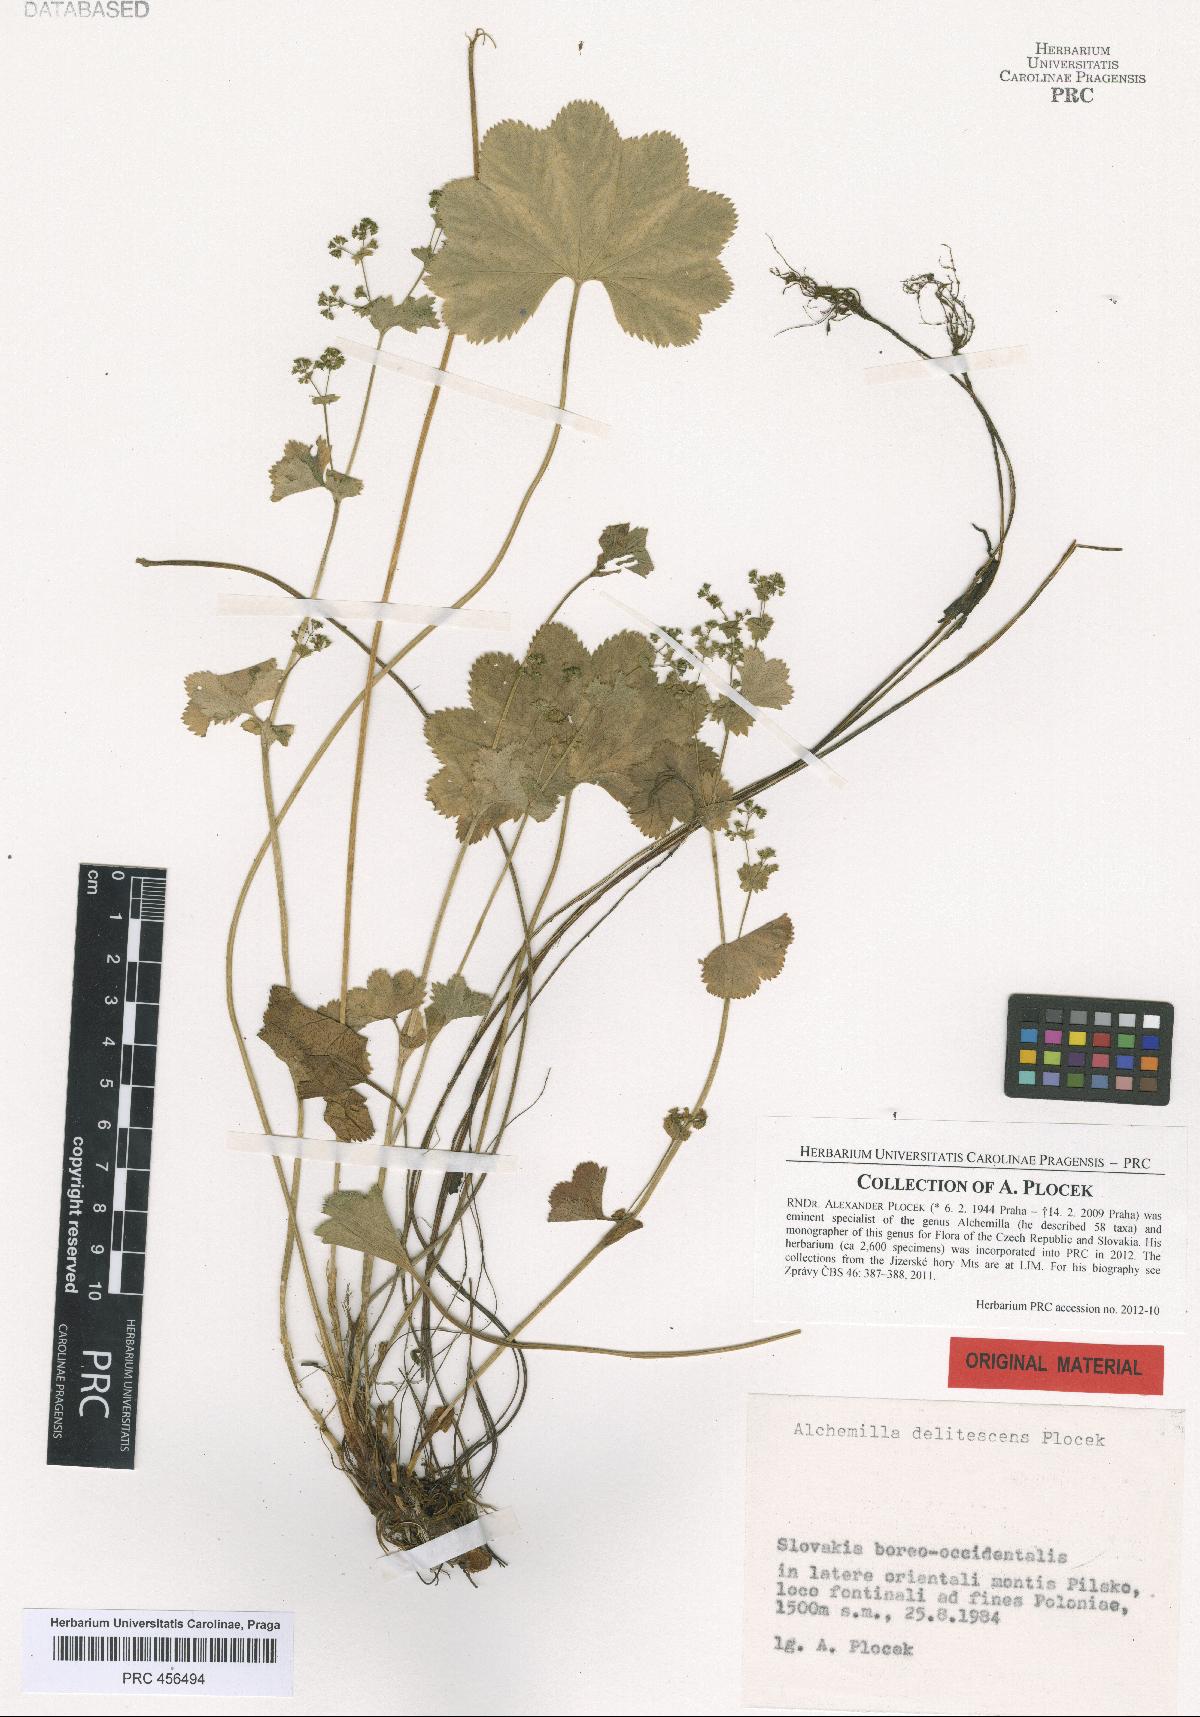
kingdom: Plantae
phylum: Tracheophyta
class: Magnoliopsida
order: Rosales
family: Rosaceae
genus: Alchemilla
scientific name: Alchemilla delitescens
